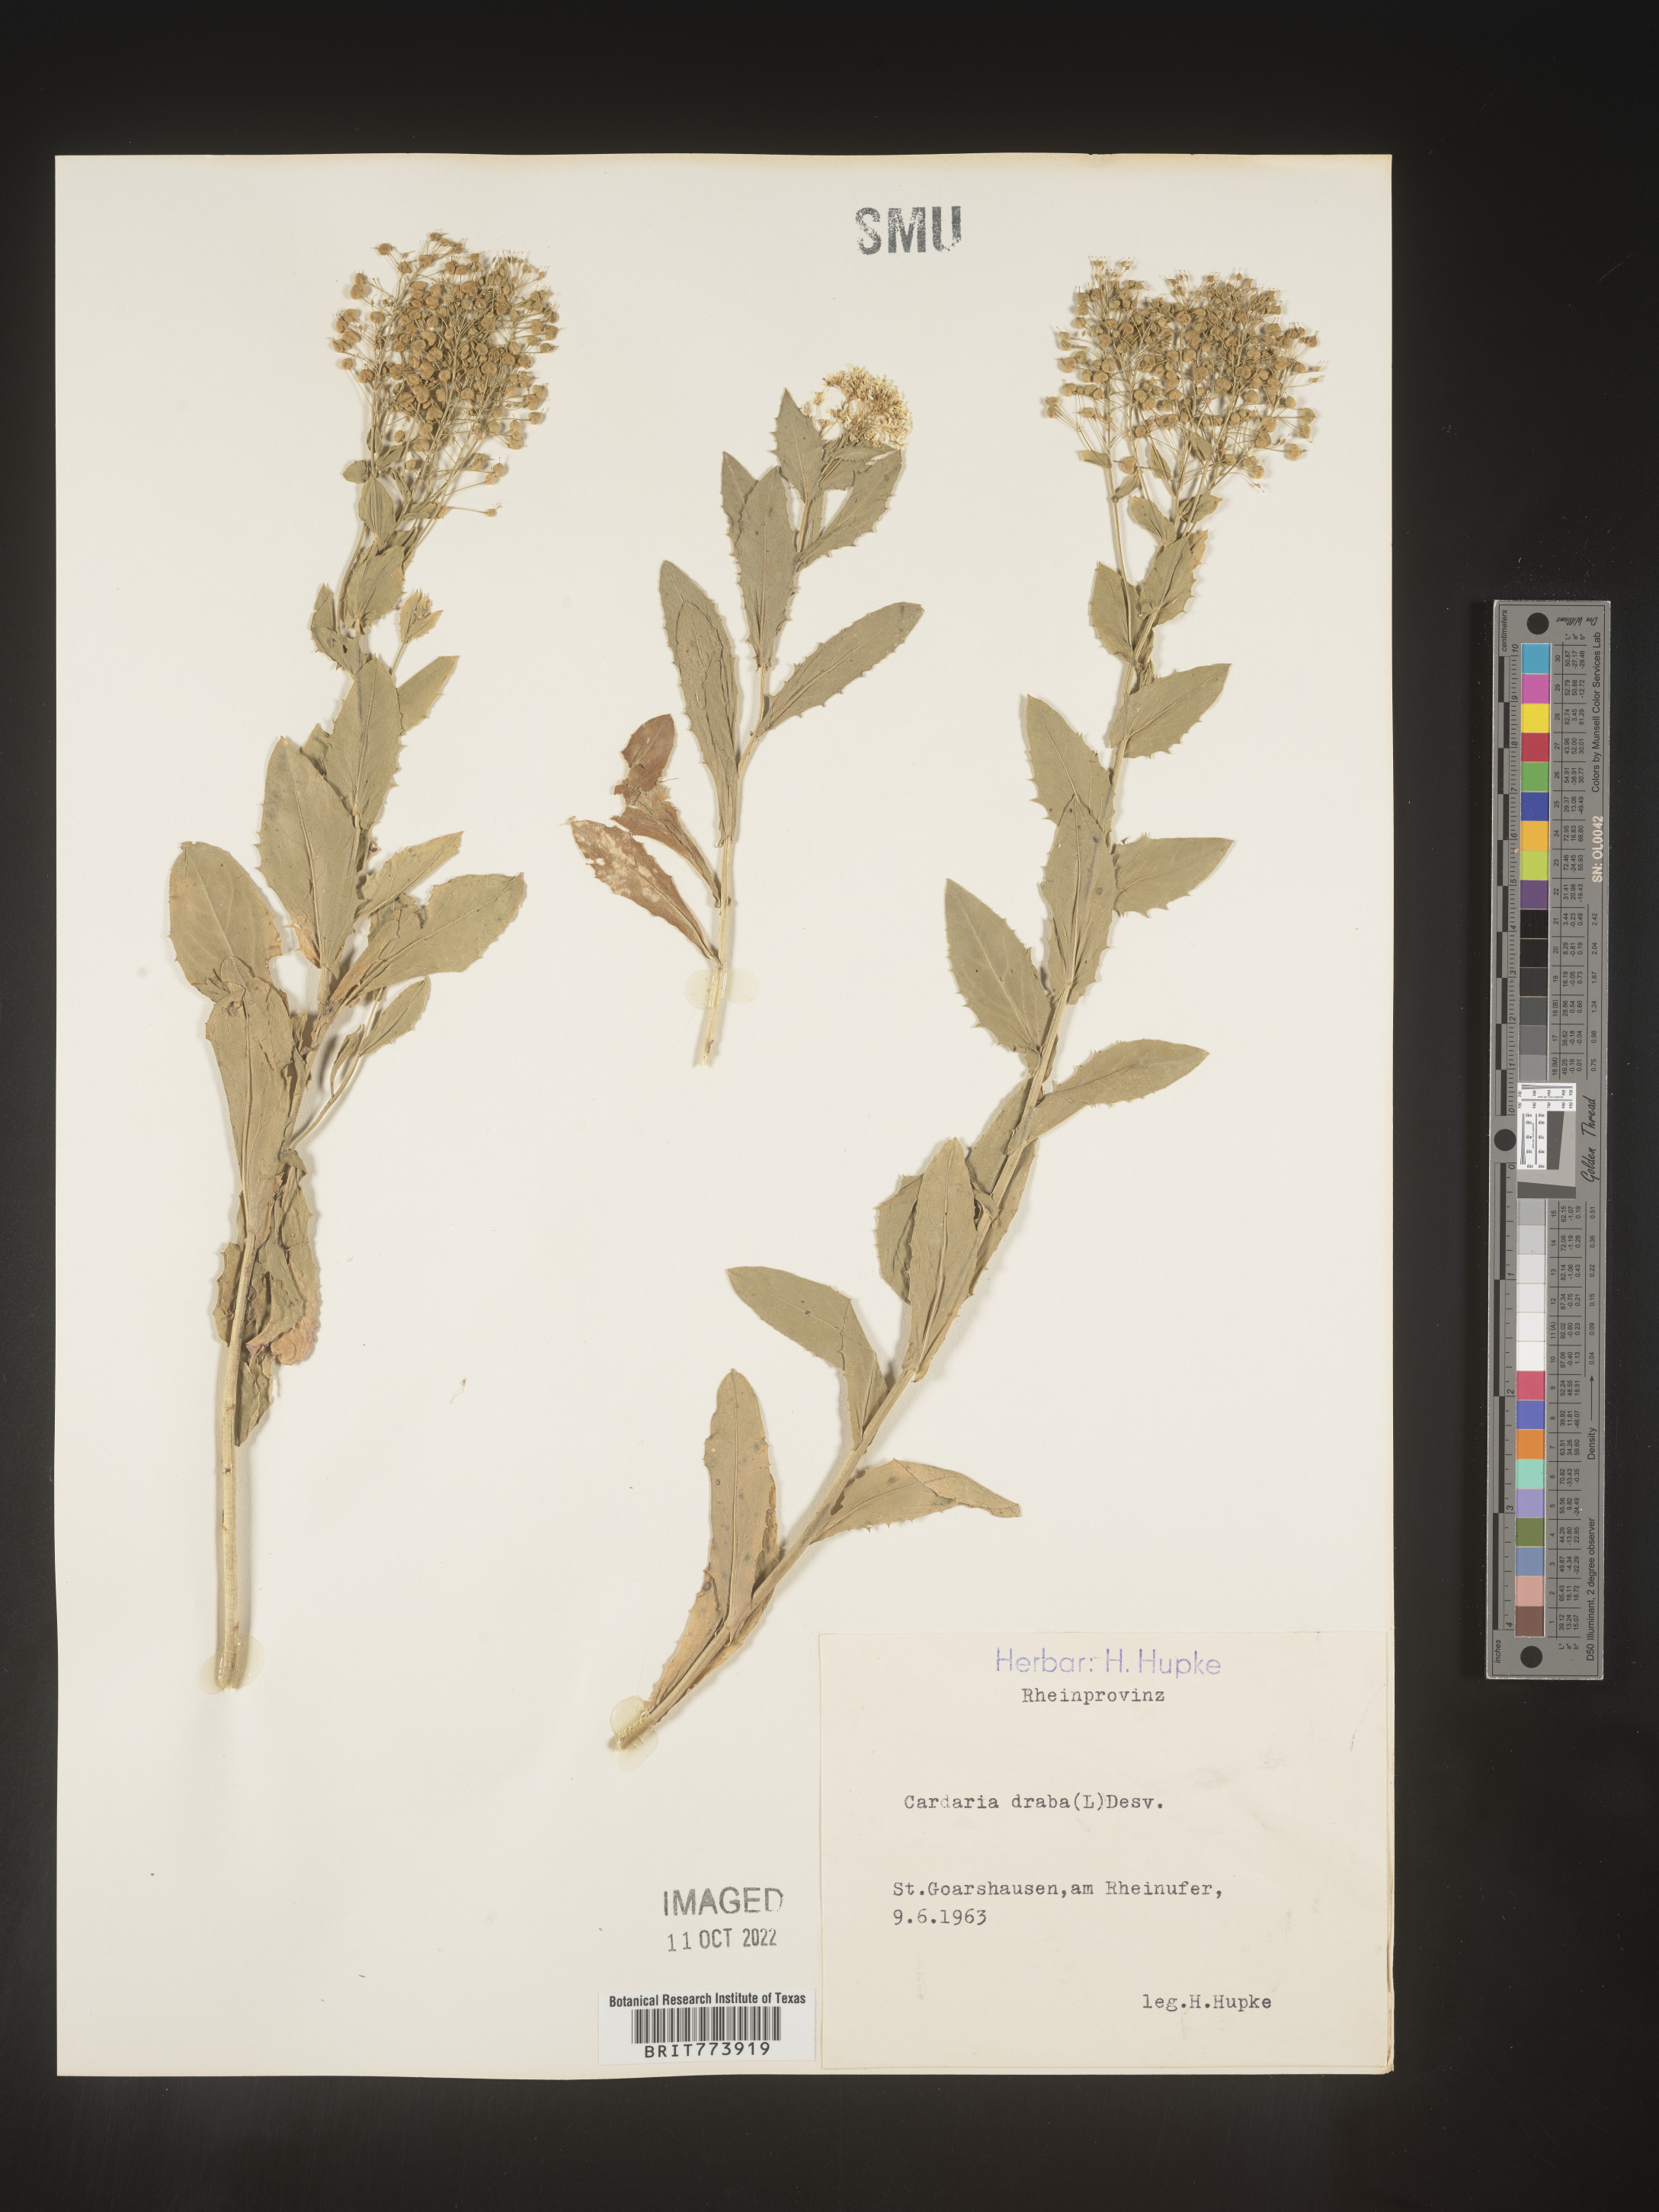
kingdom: Plantae
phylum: Tracheophyta
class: Magnoliopsida
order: Brassicales
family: Brassicaceae
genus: Lepidium
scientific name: Lepidium
